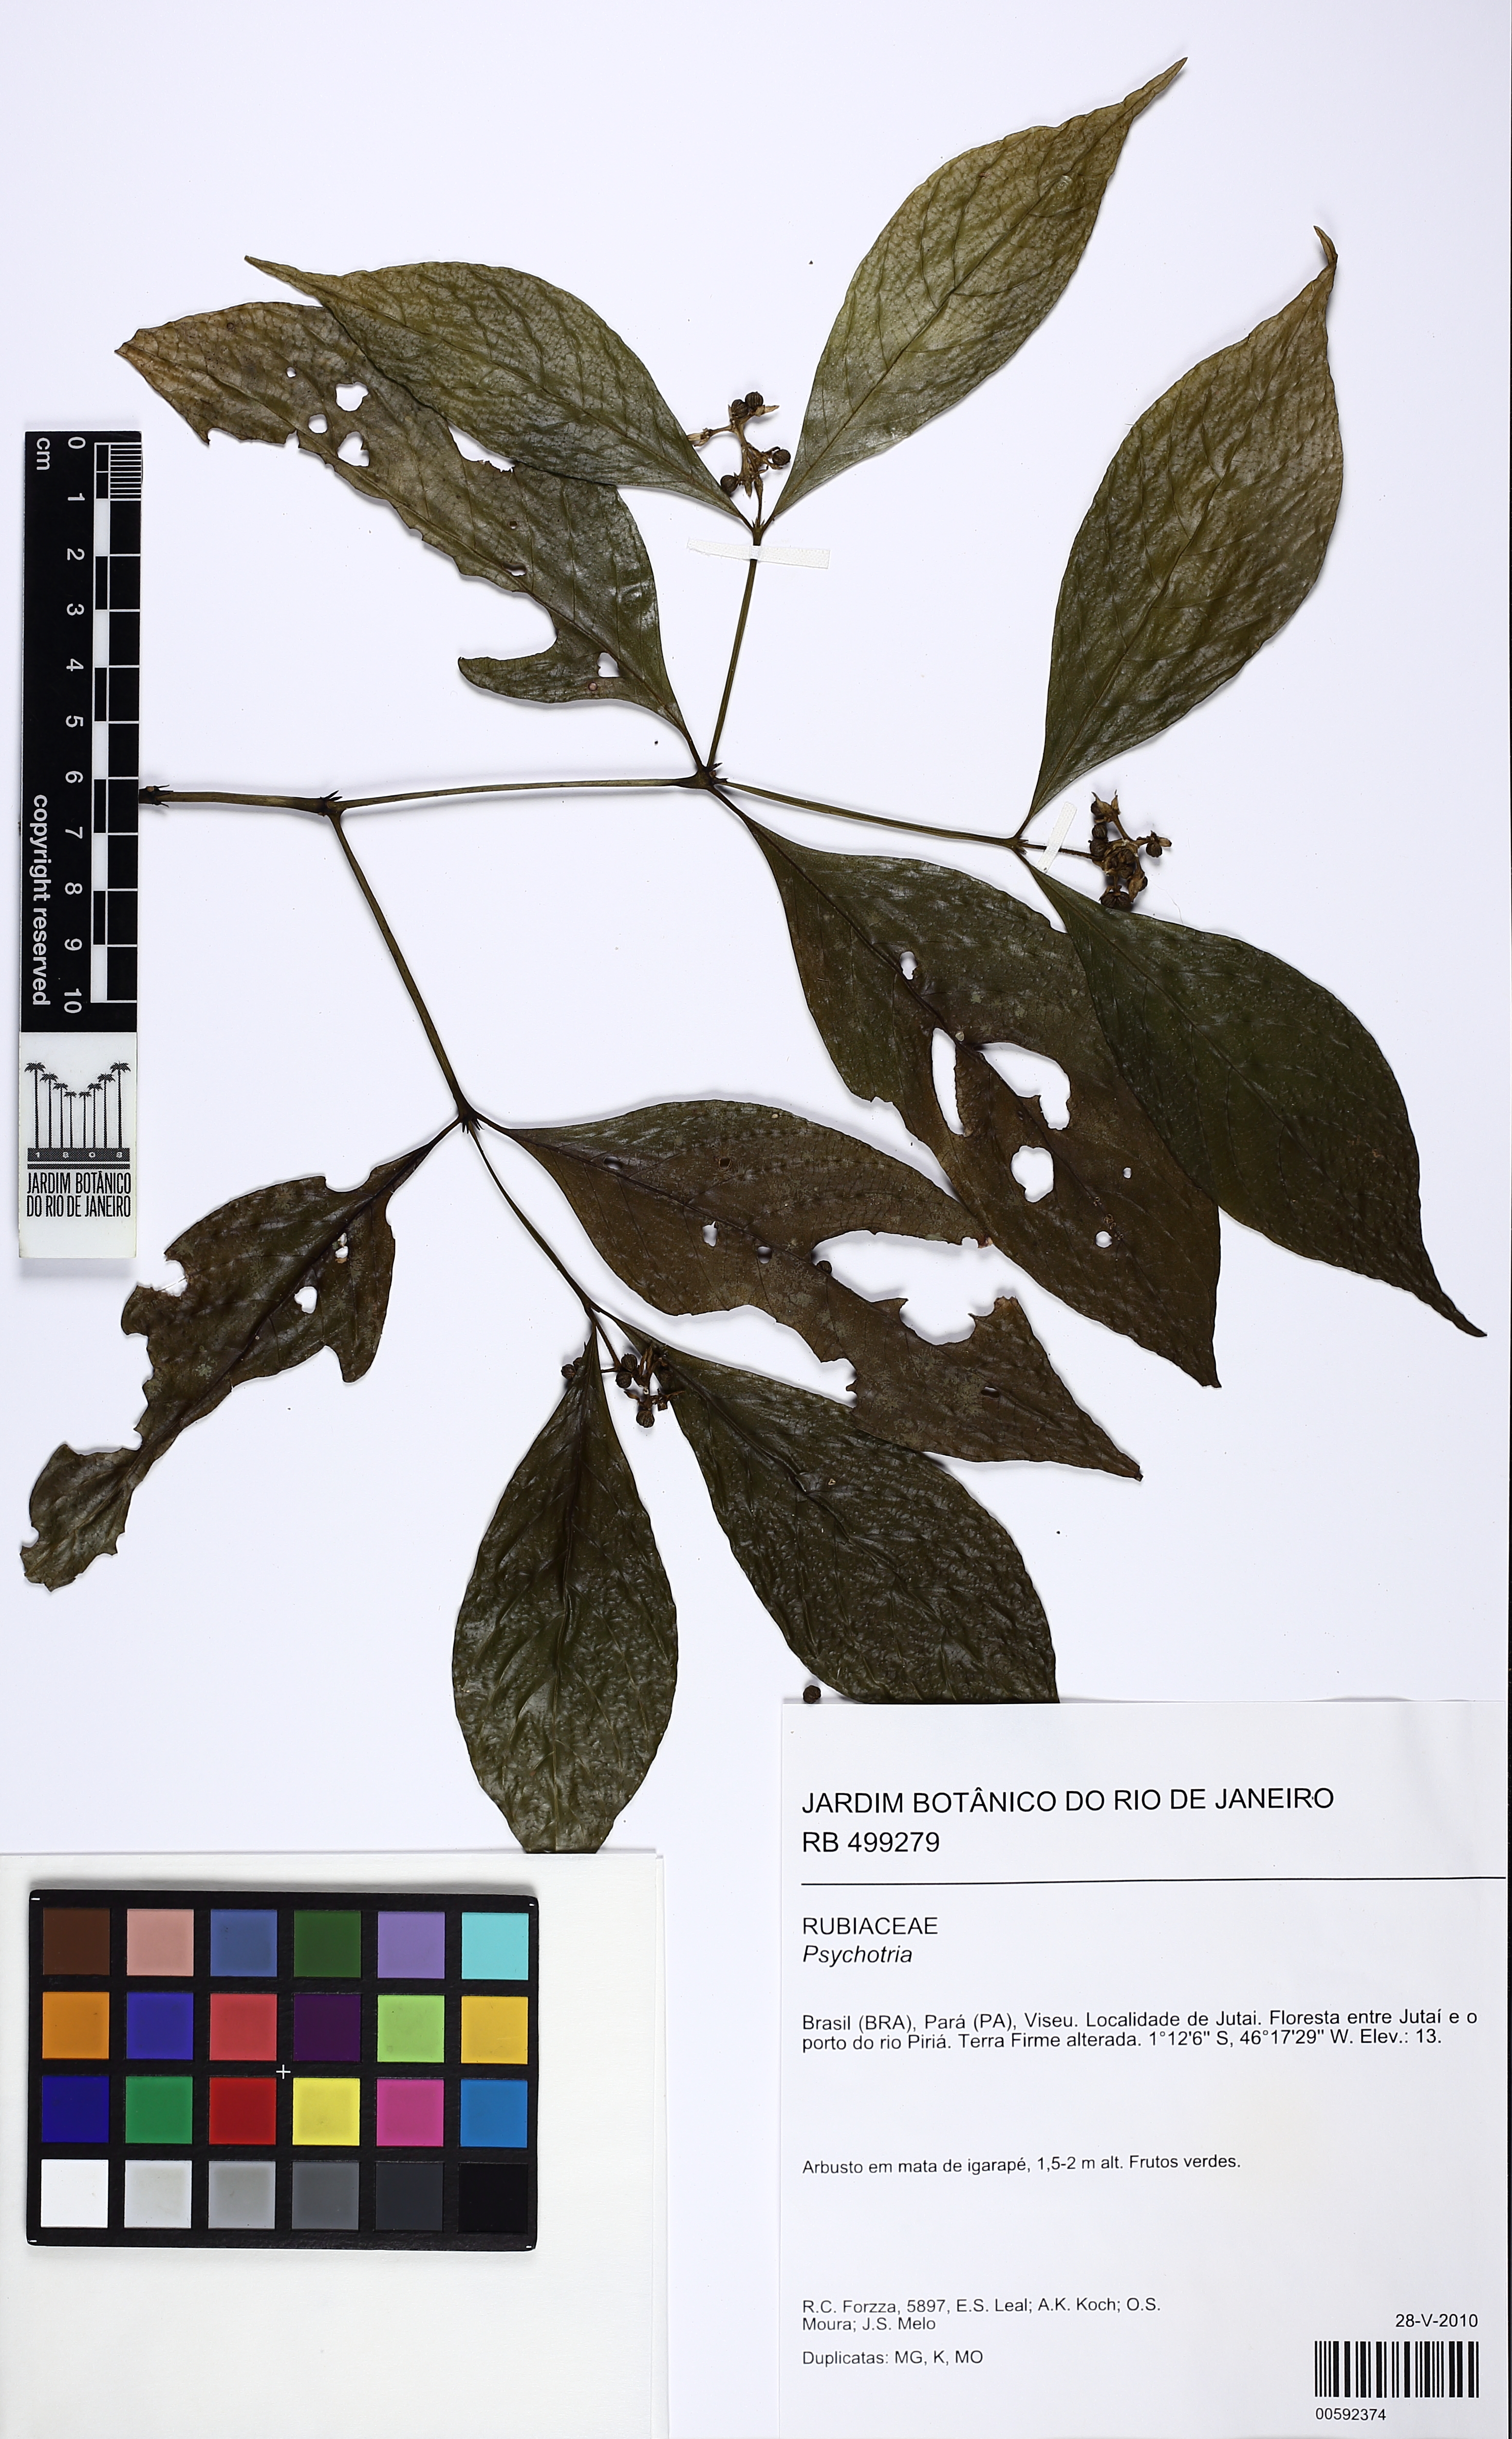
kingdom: Plantae
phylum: Tracheophyta
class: Magnoliopsida
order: Gentianales
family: Rubiaceae
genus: Palicourea
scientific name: Palicourea hoffmannseggiana
